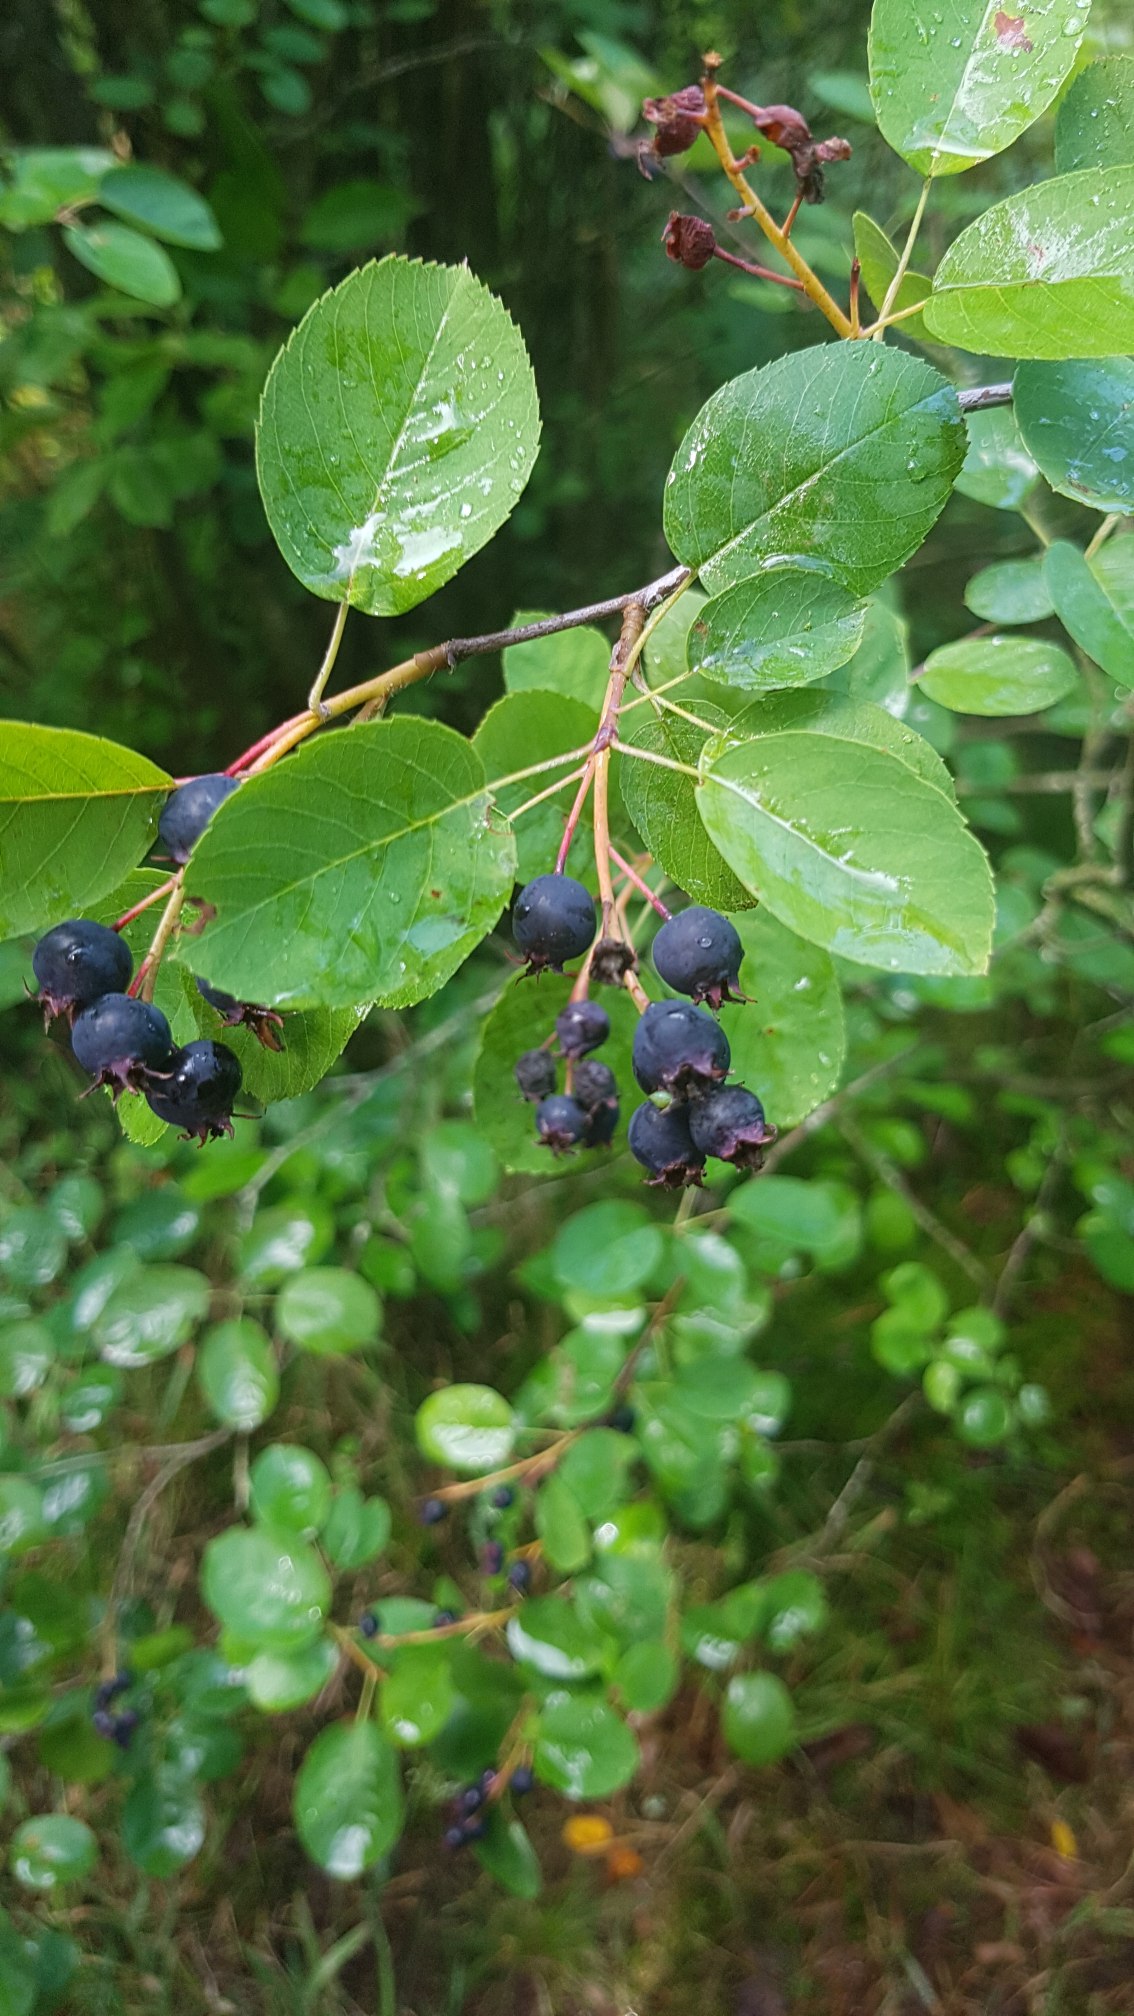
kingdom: Plantae
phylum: Tracheophyta
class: Magnoliopsida
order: Rosales
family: Rosaceae
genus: Amelanchier
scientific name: Amelanchier alnifolia
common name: Ellebladet bærmispel
